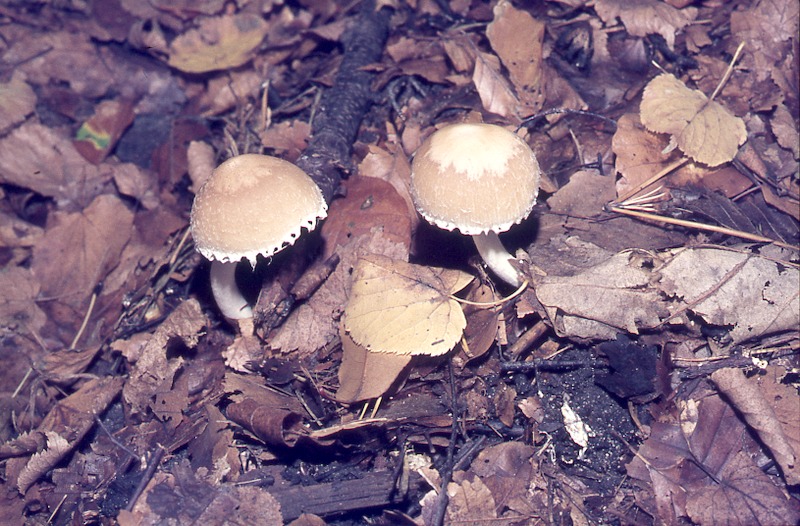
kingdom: Fungi
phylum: Basidiomycota
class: Agaricomycetes
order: Agaricales
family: Psathyrellaceae
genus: Candolleomyces
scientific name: Candolleomyces candolleanus
